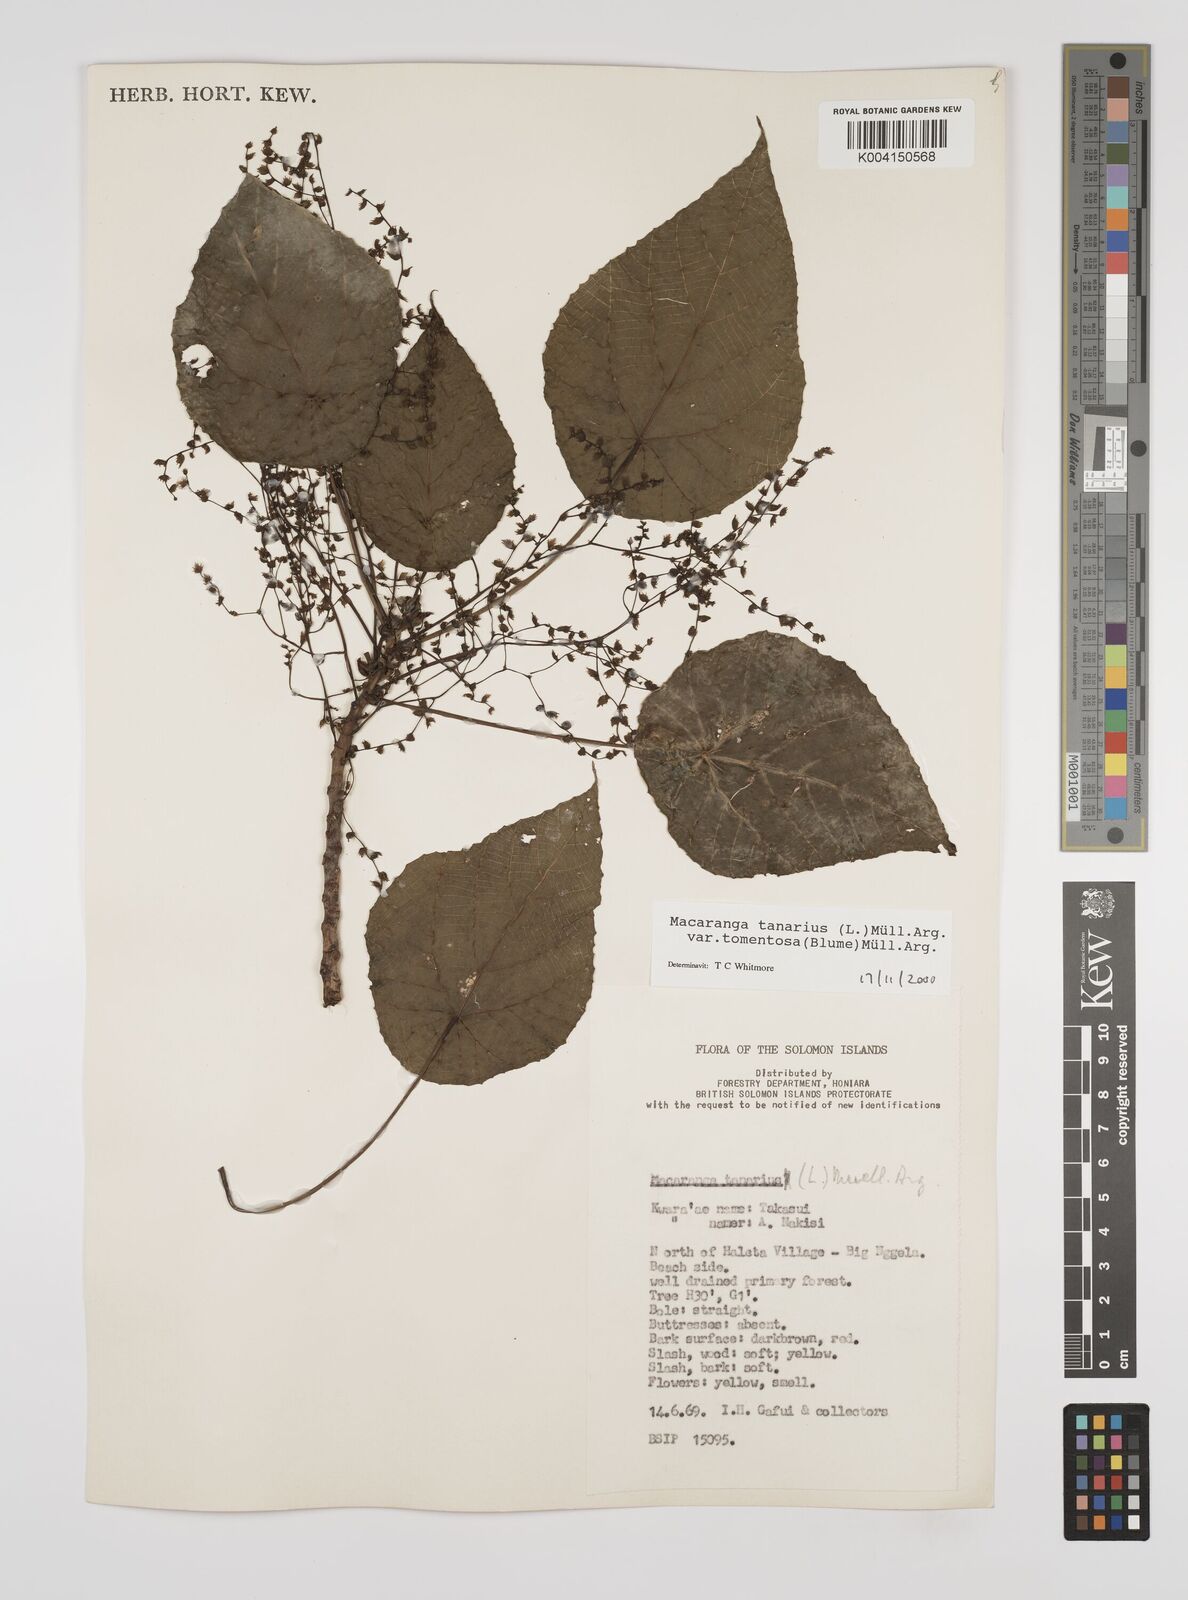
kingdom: Plantae
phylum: Tracheophyta
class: Magnoliopsida
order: Malpighiales
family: Euphorbiaceae
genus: Macaranga
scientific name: Macaranga tanarius
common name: Parasol leaf tree
